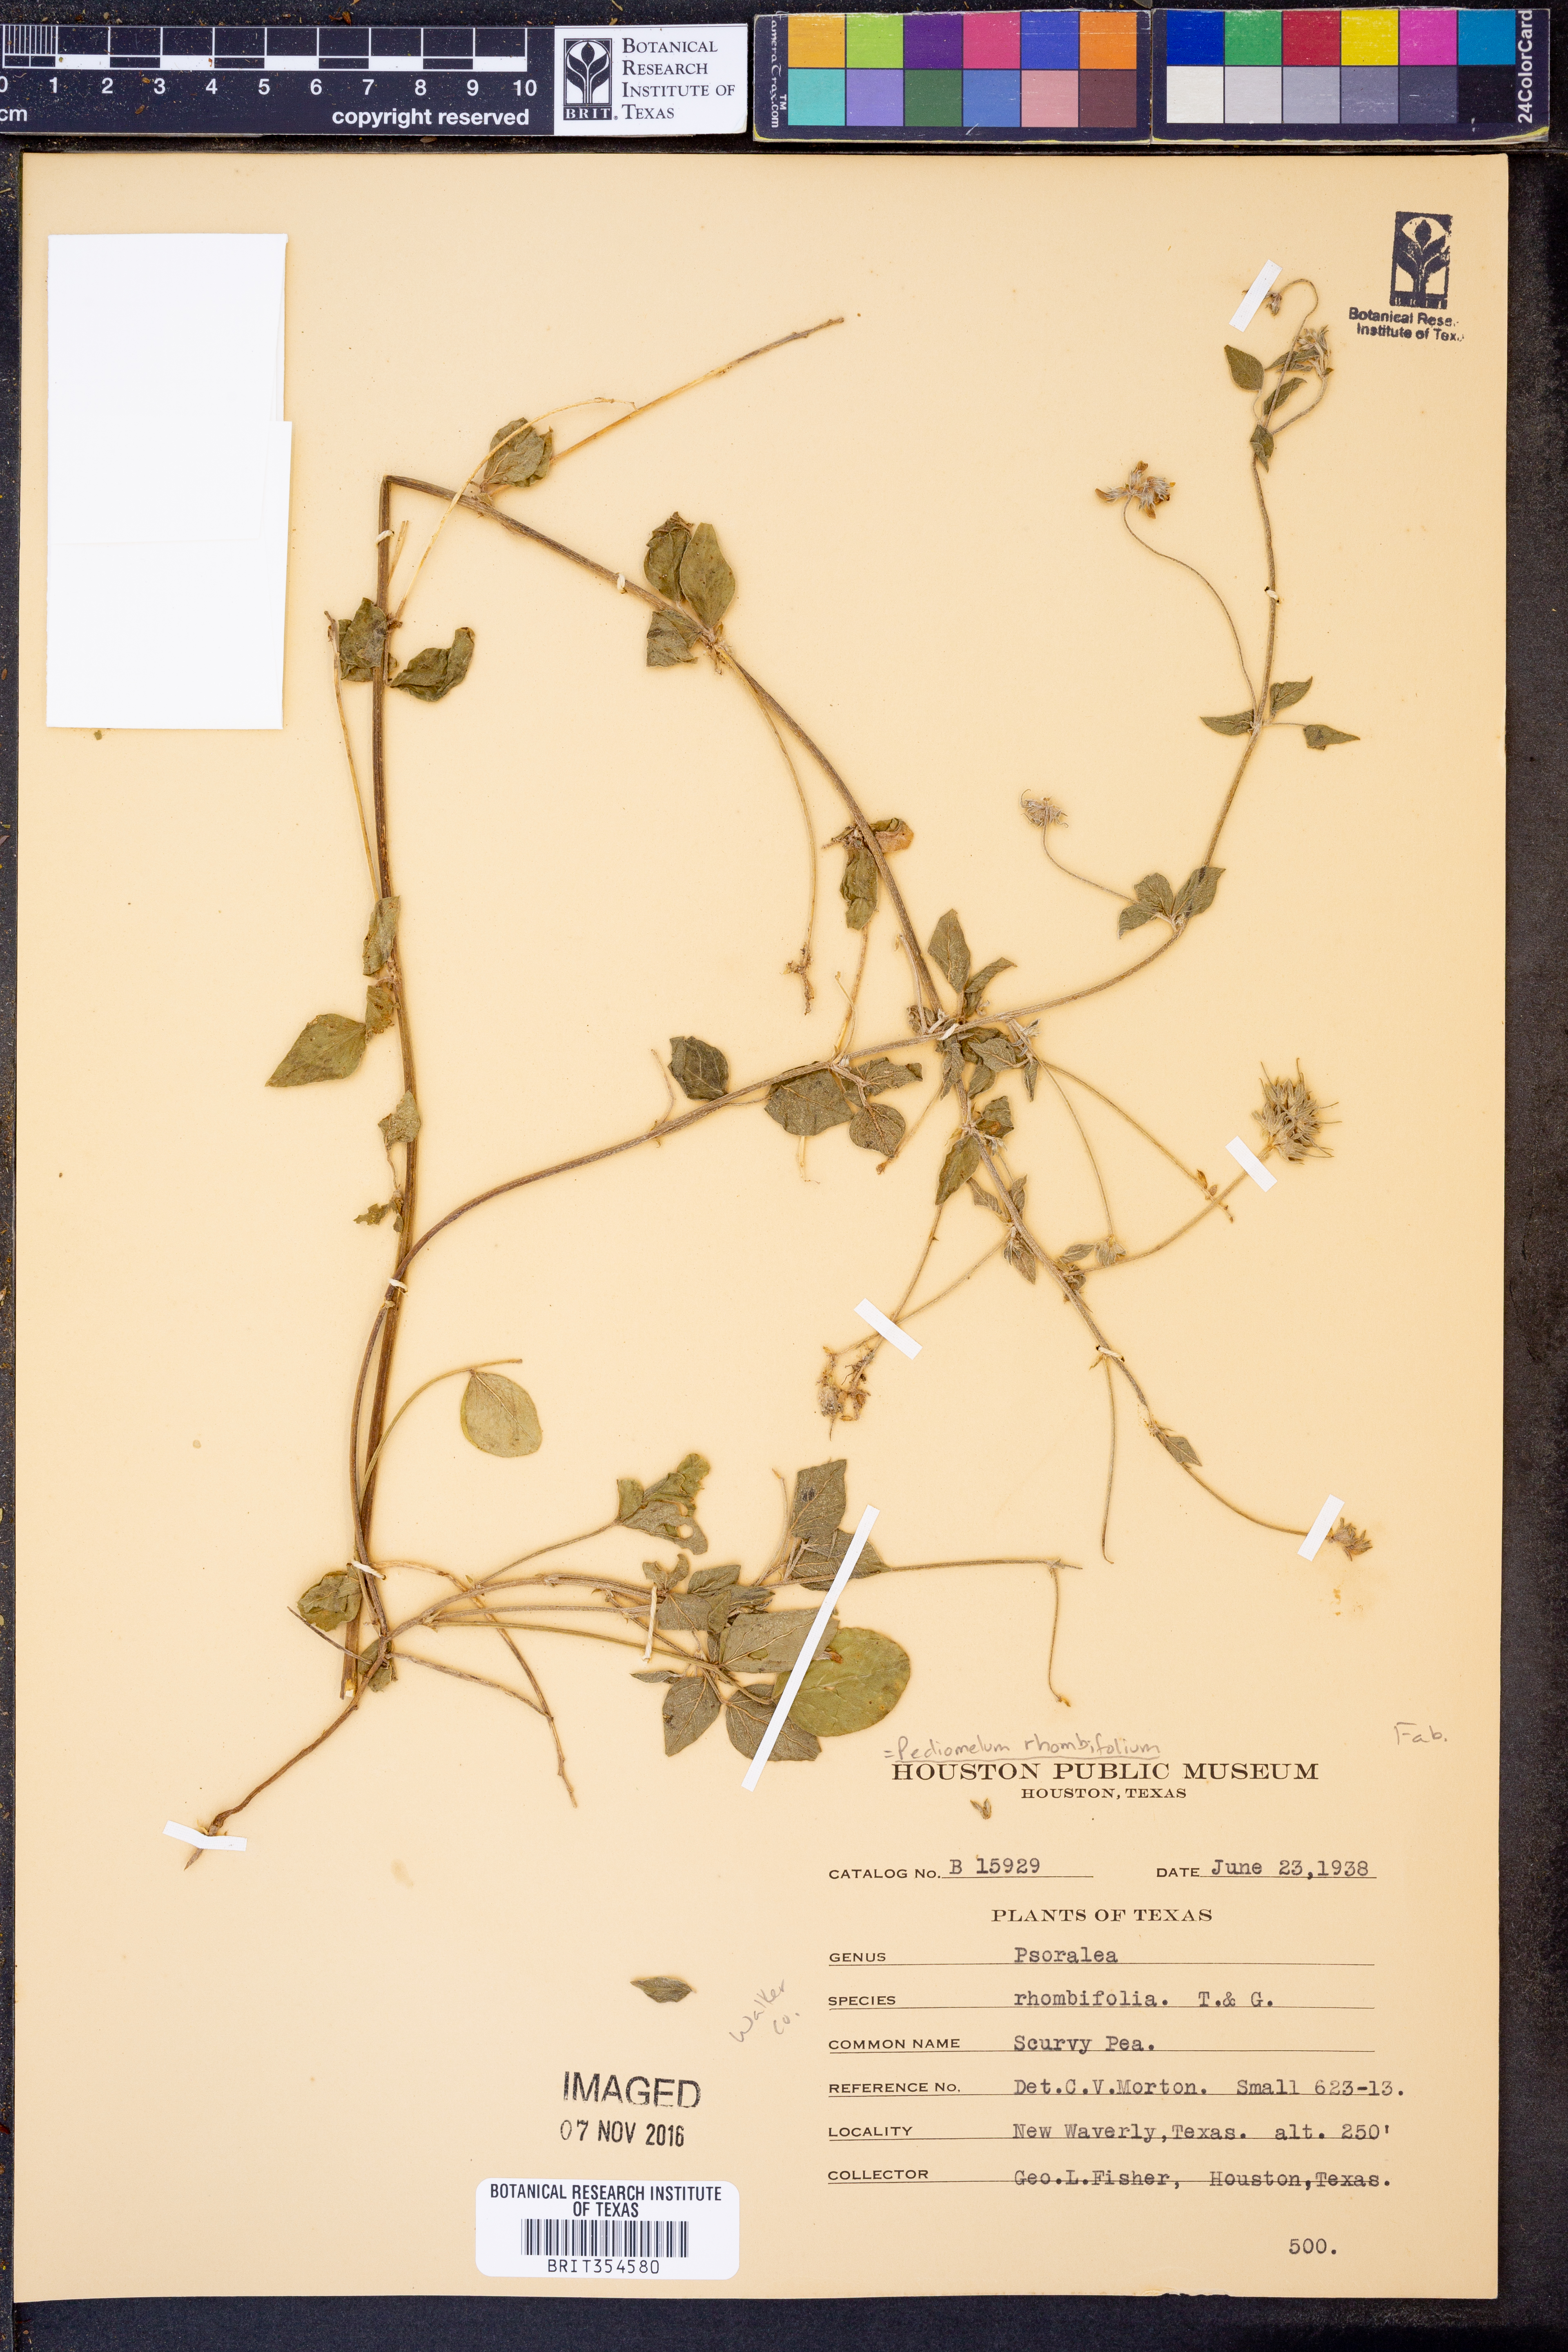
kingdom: Plantae
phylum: Tracheophyta
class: Magnoliopsida
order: Fabales
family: Fabaceae
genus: Pediomelum
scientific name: Pediomelum rhombifolium
